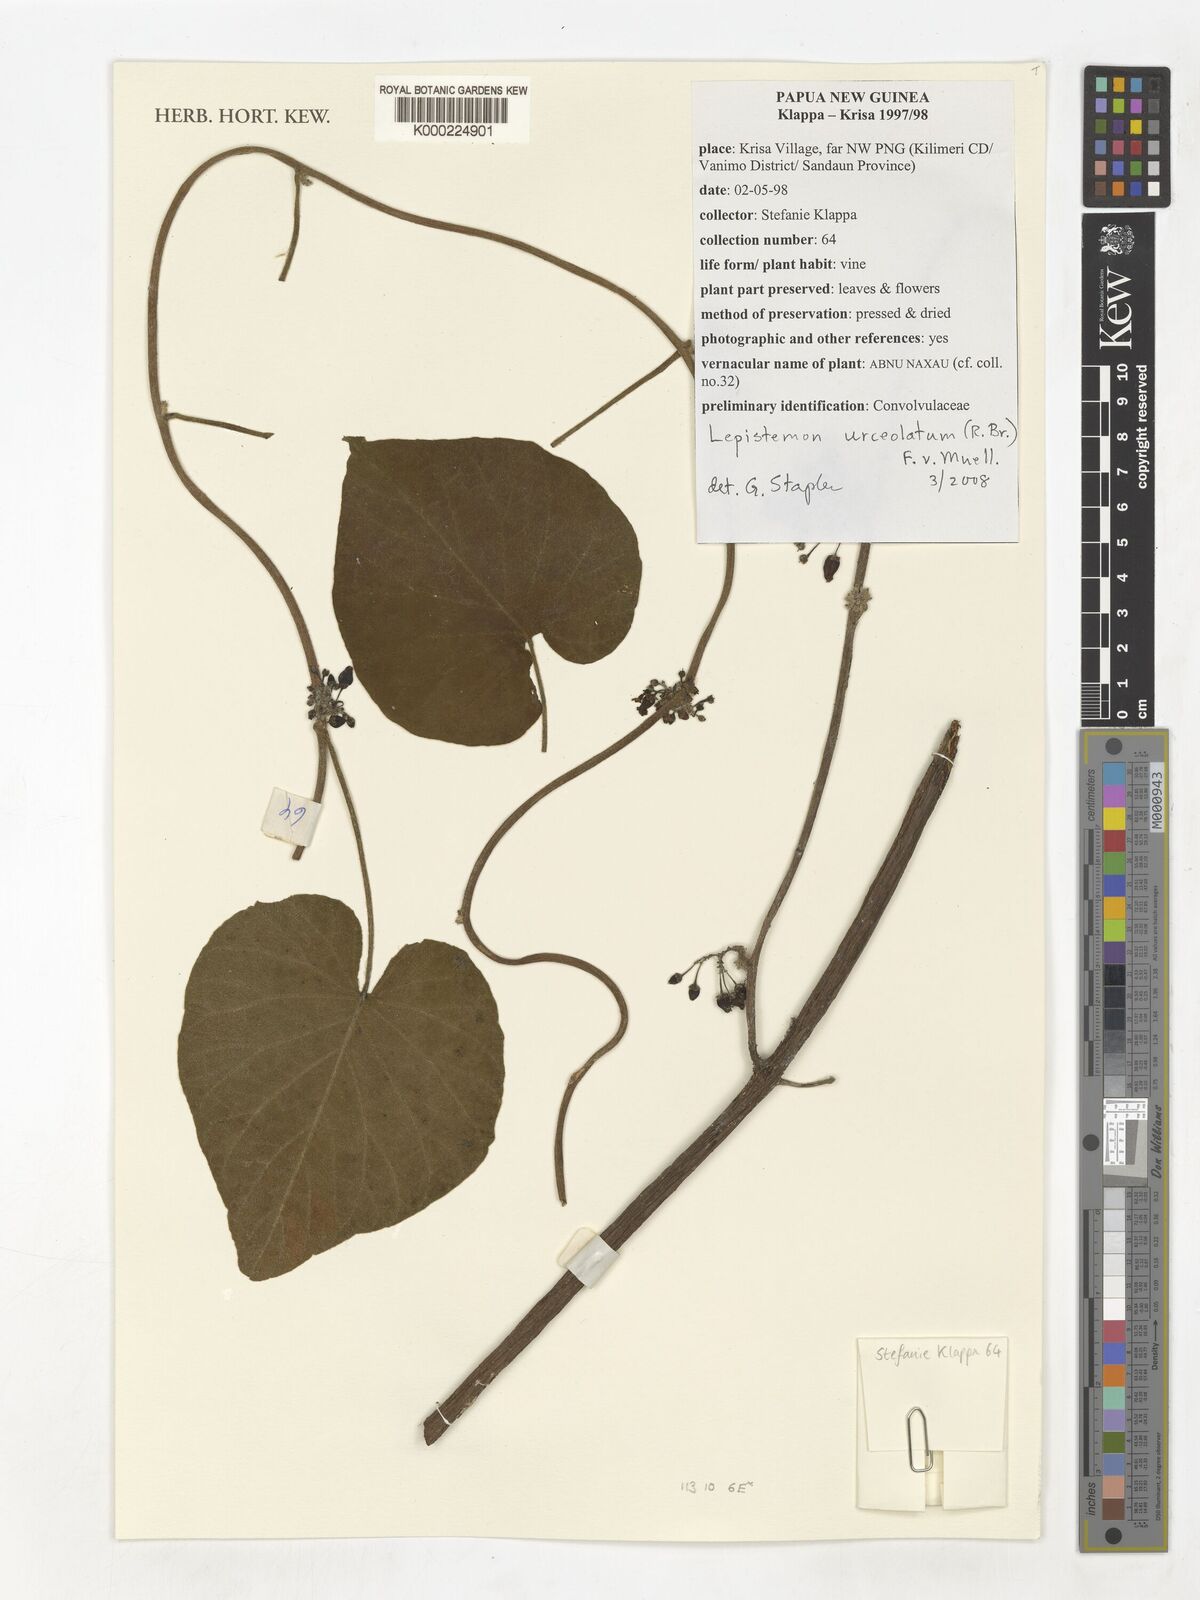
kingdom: Plantae
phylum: Tracheophyta
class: Magnoliopsida
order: Solanales
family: Convolvulaceae
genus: Lepistemon
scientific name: Lepistemon urceolatus
